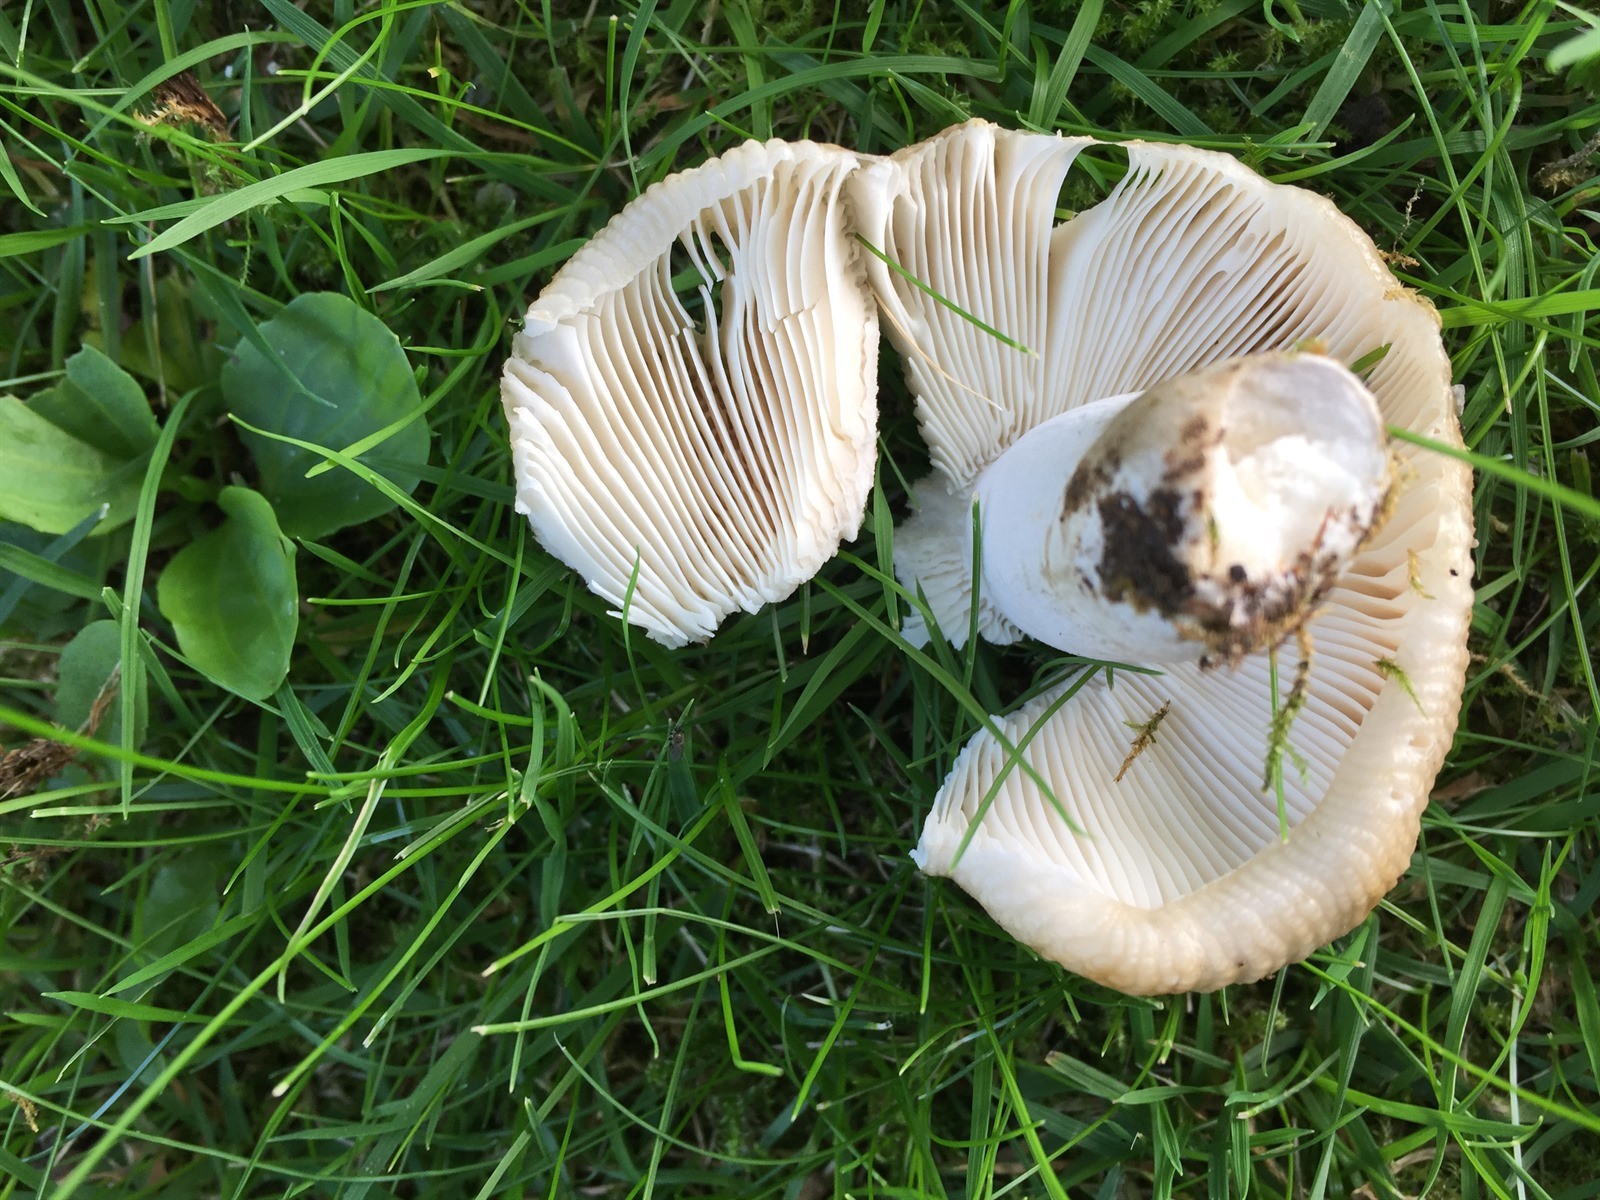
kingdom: Fungi
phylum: Basidiomycota
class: Agaricomycetes
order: Russulales
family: Russulaceae
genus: Russula
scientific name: Russula amoenolens
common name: Camembert brittlegill
